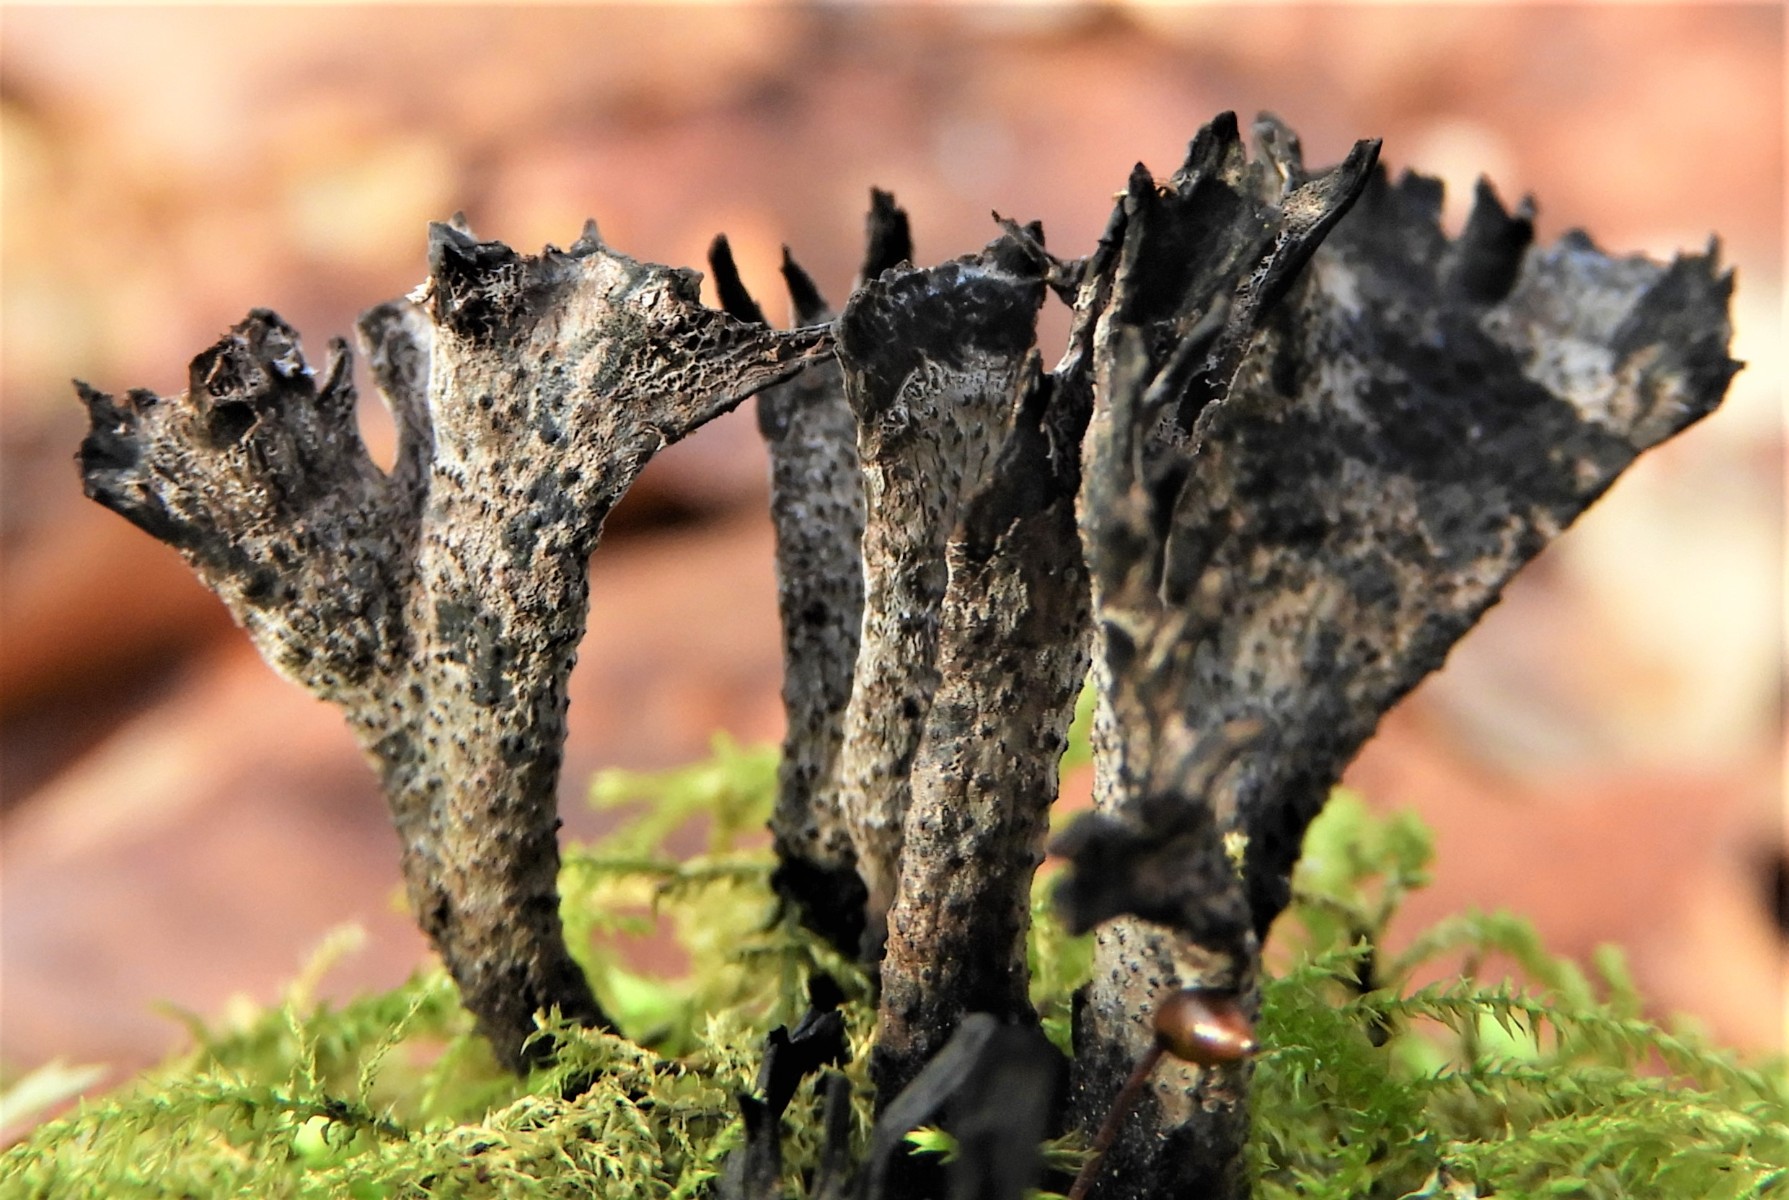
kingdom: Fungi
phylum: Ascomycota
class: Sordariomycetes
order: Xylariales
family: Xylariaceae
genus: Xylaria
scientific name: Xylaria hypoxylon
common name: grenet stødsvamp
